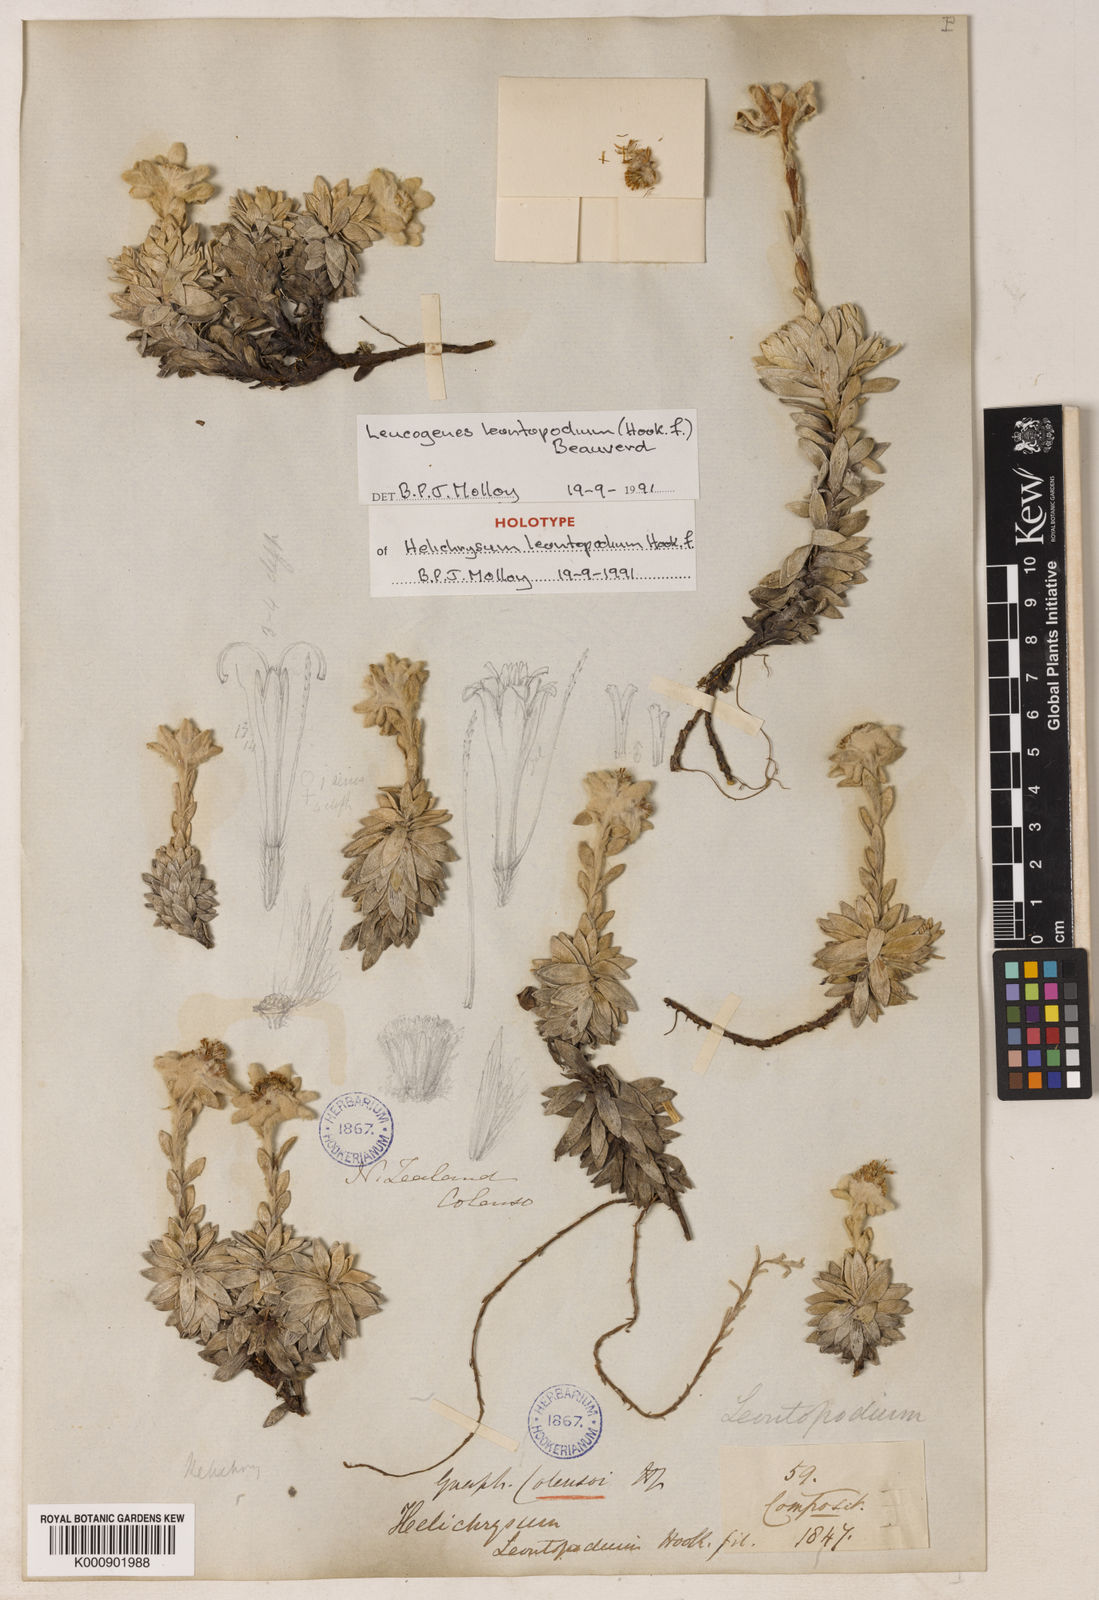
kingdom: Plantae
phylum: Tracheophyta
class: Magnoliopsida
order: Asterales
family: Asteraceae
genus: Leucogenes
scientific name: Leucogenes leontopodium
